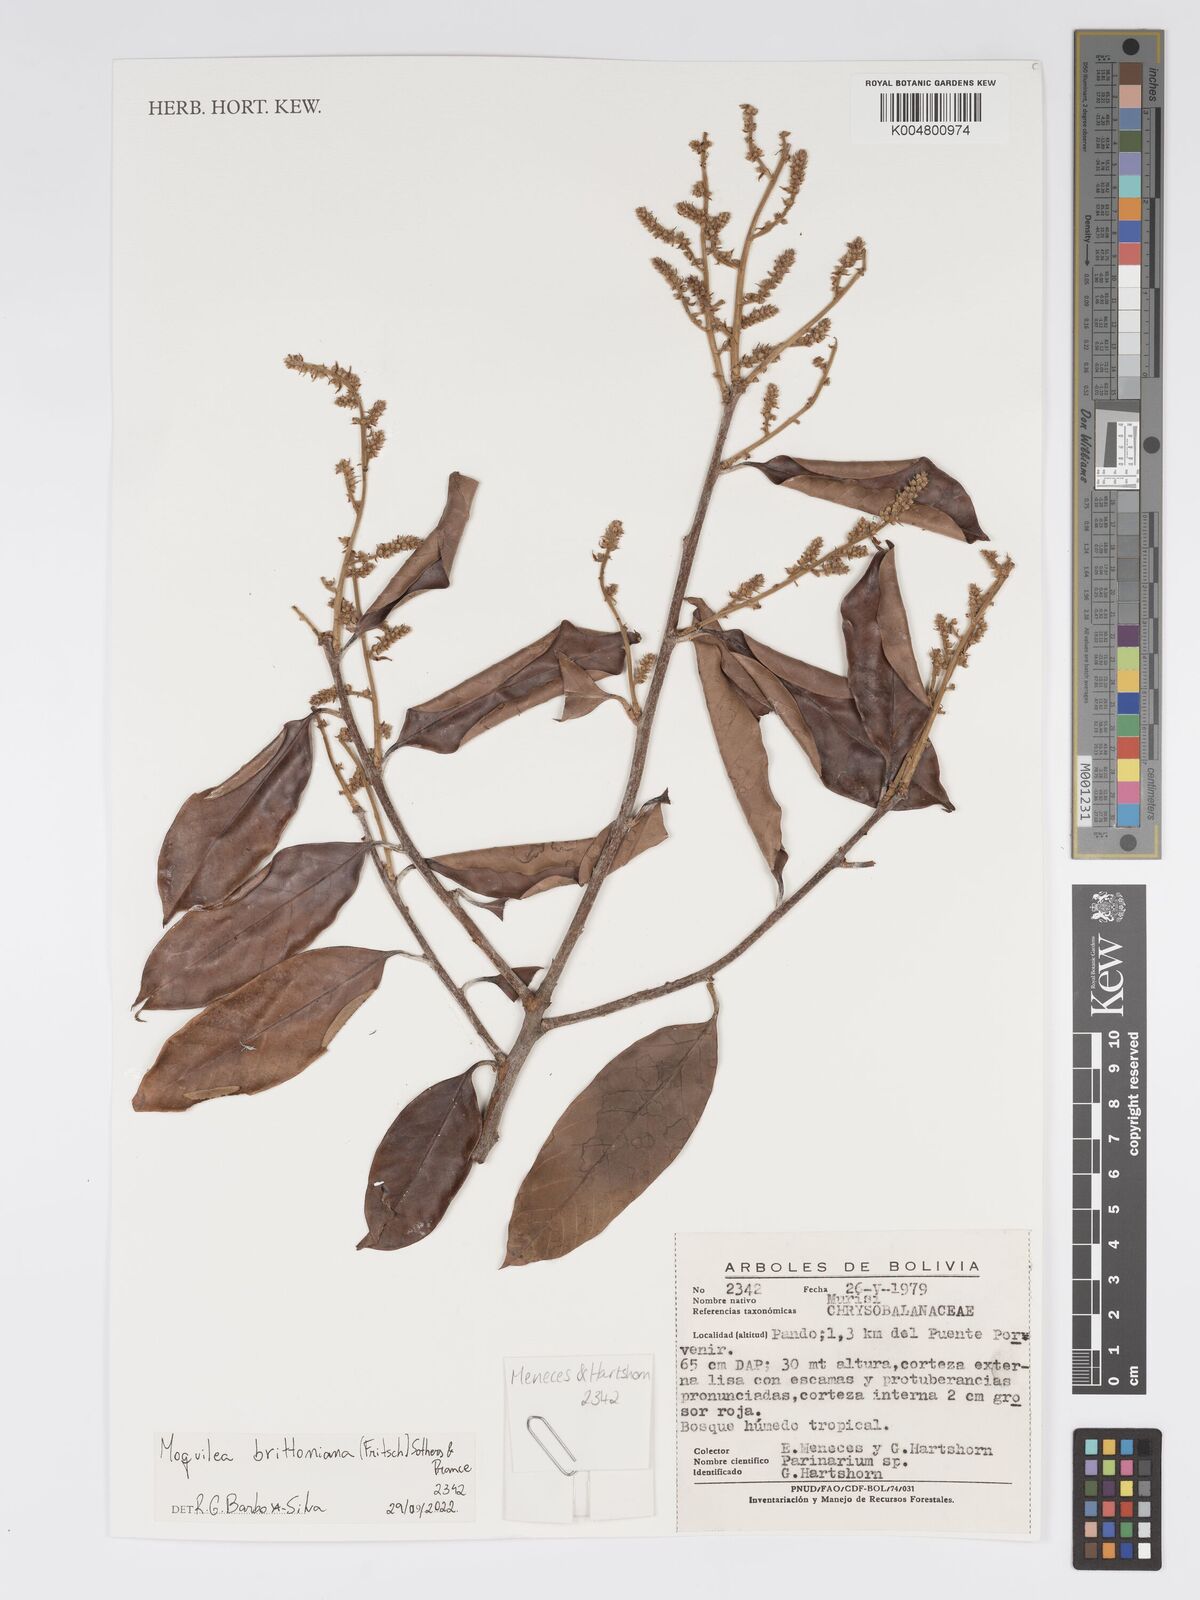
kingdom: Plantae
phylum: Tracheophyta
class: Magnoliopsida
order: Malpighiales
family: Chrysobalanaceae
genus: Moquilea
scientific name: Moquilea brittoniana
